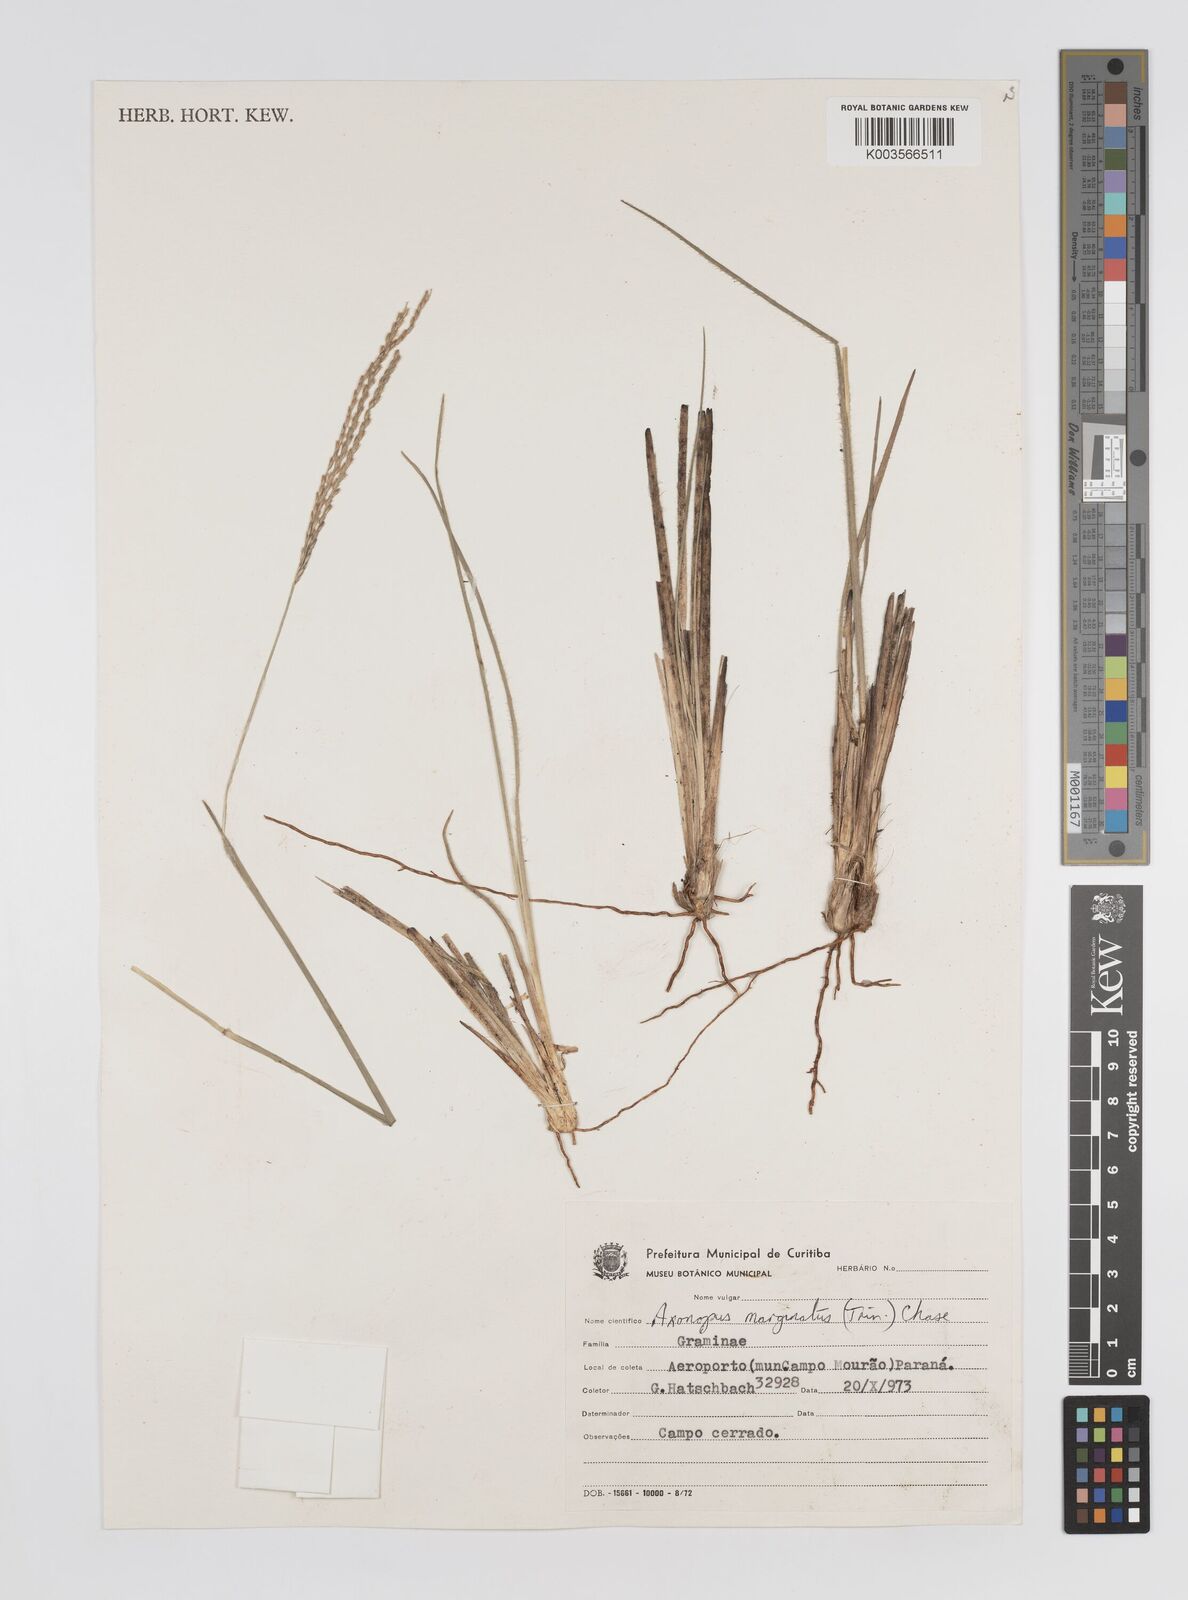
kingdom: Plantae
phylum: Tracheophyta
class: Liliopsida
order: Poales
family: Poaceae
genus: Axonopus
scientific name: Axonopus marginatus
